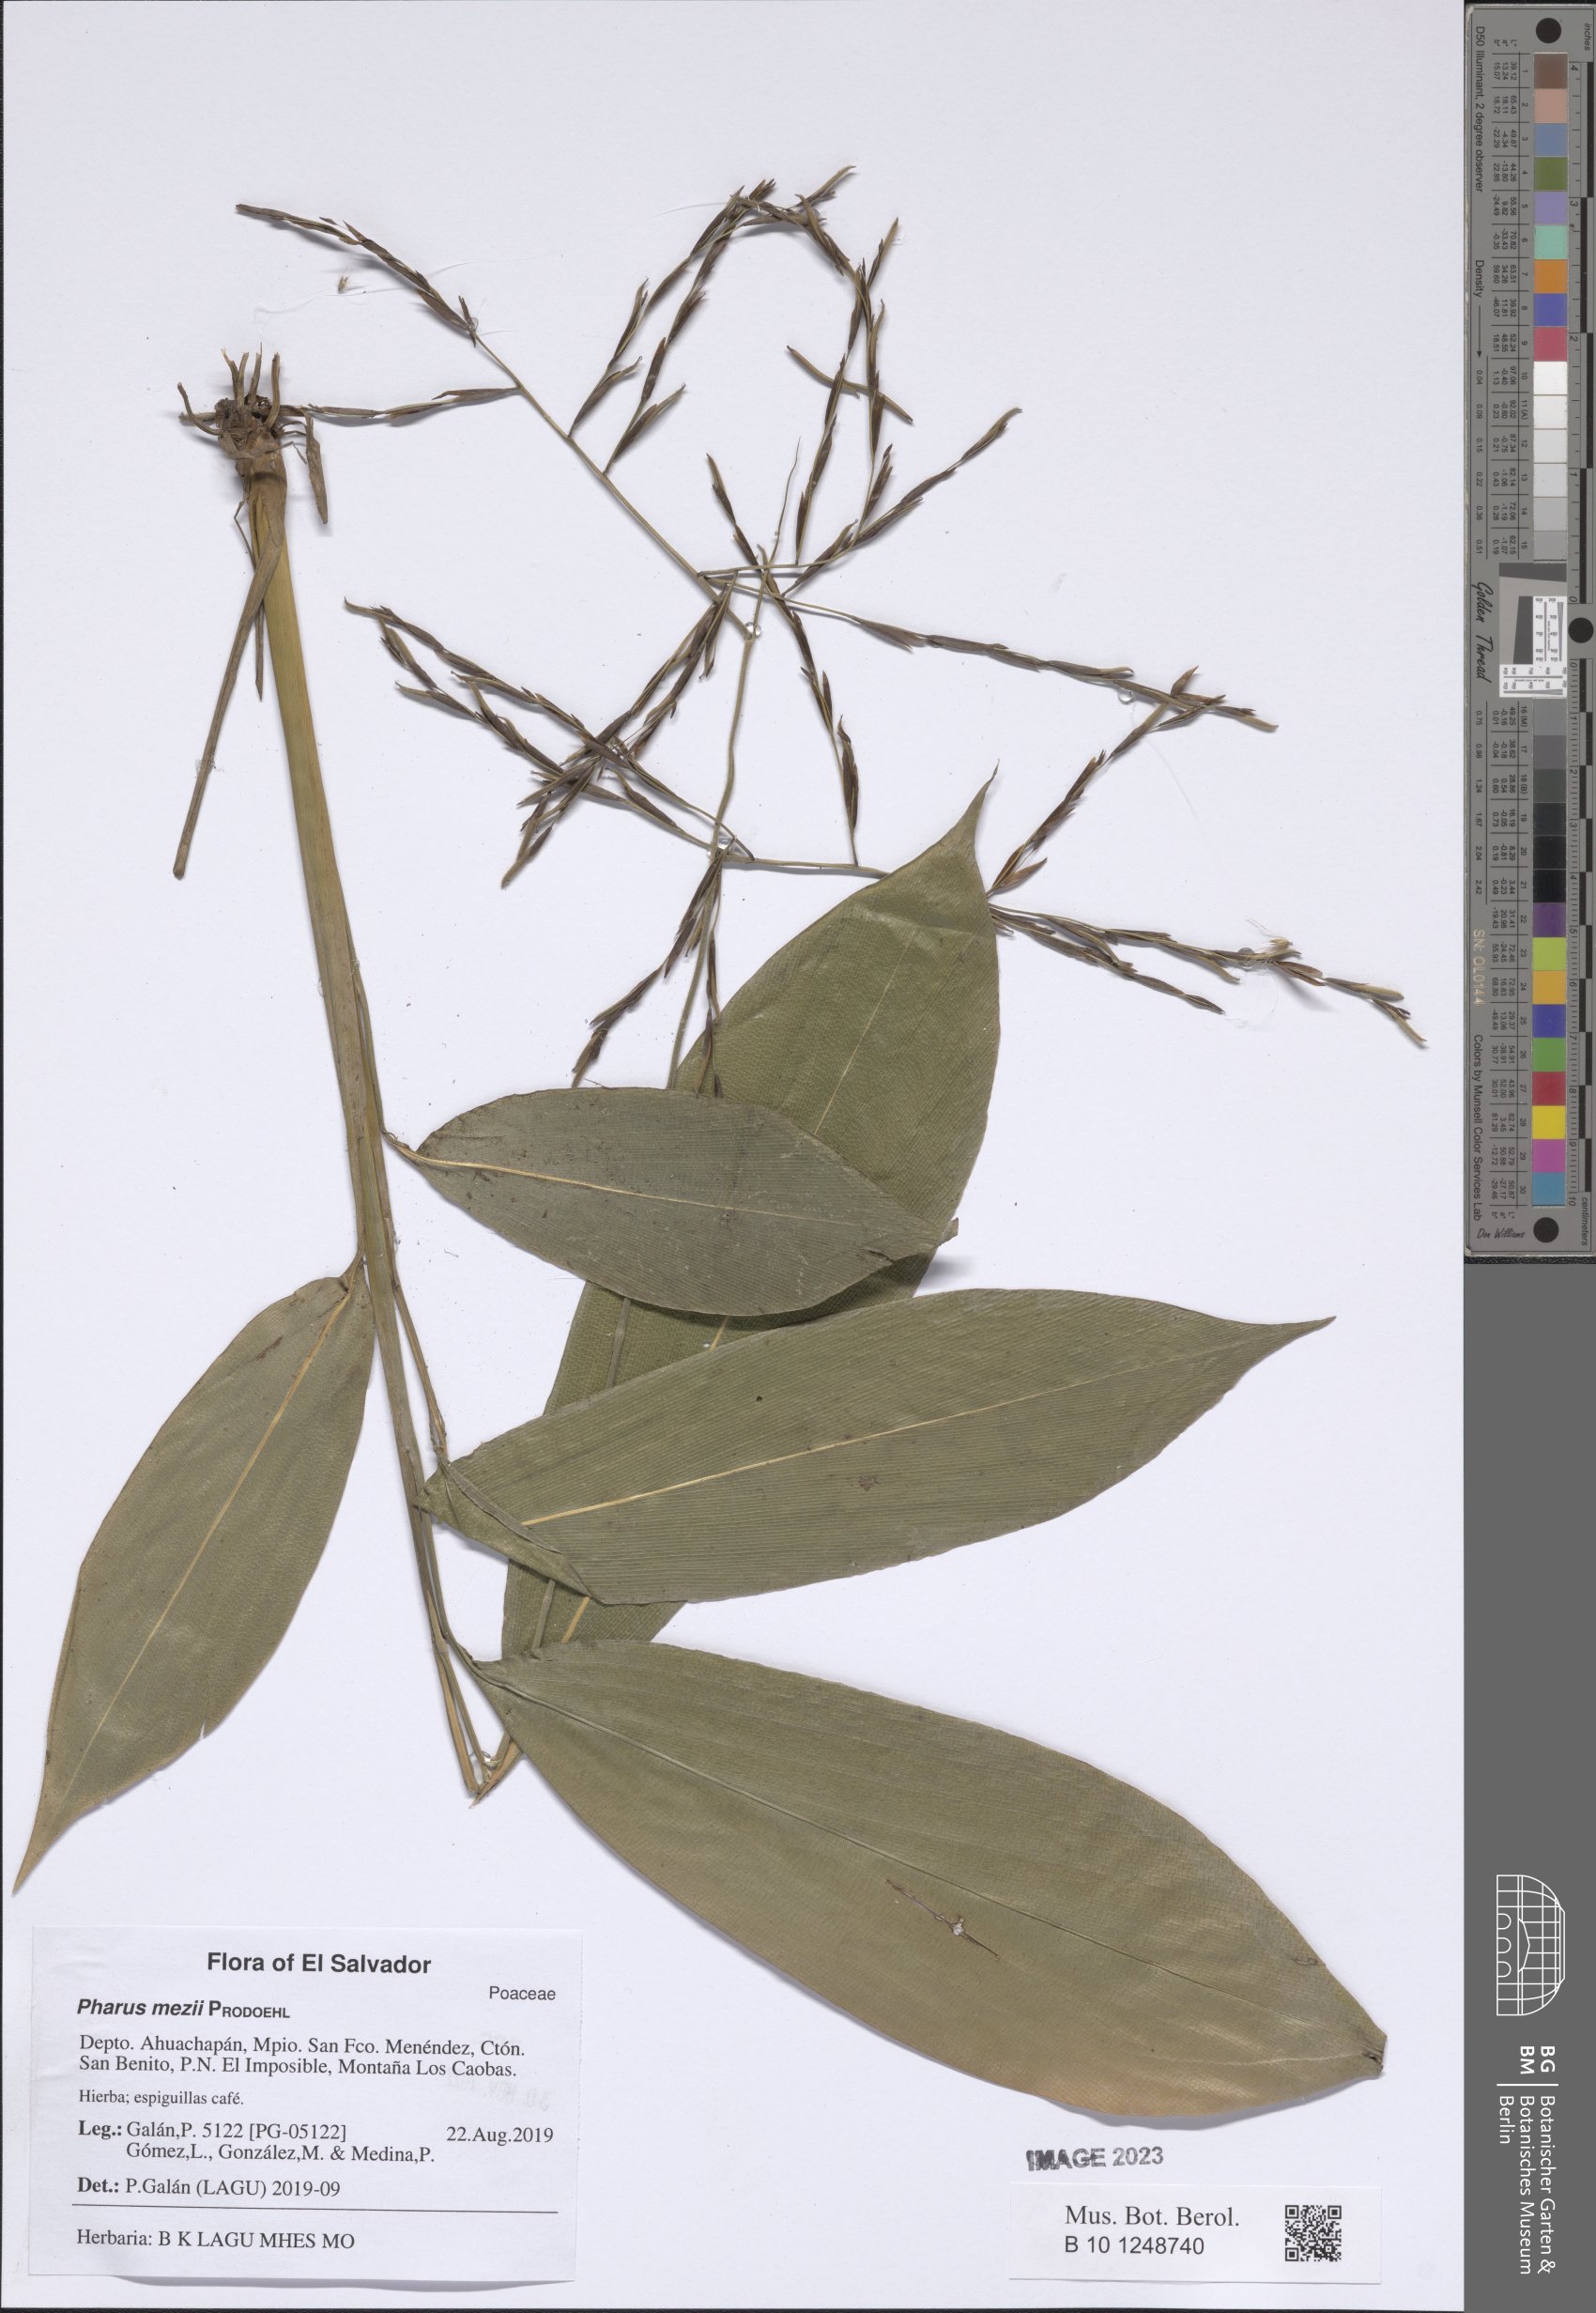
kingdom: Plantae
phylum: Tracheophyta
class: Liliopsida
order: Poales
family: Poaceae
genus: Pharus
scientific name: Pharus mezii
